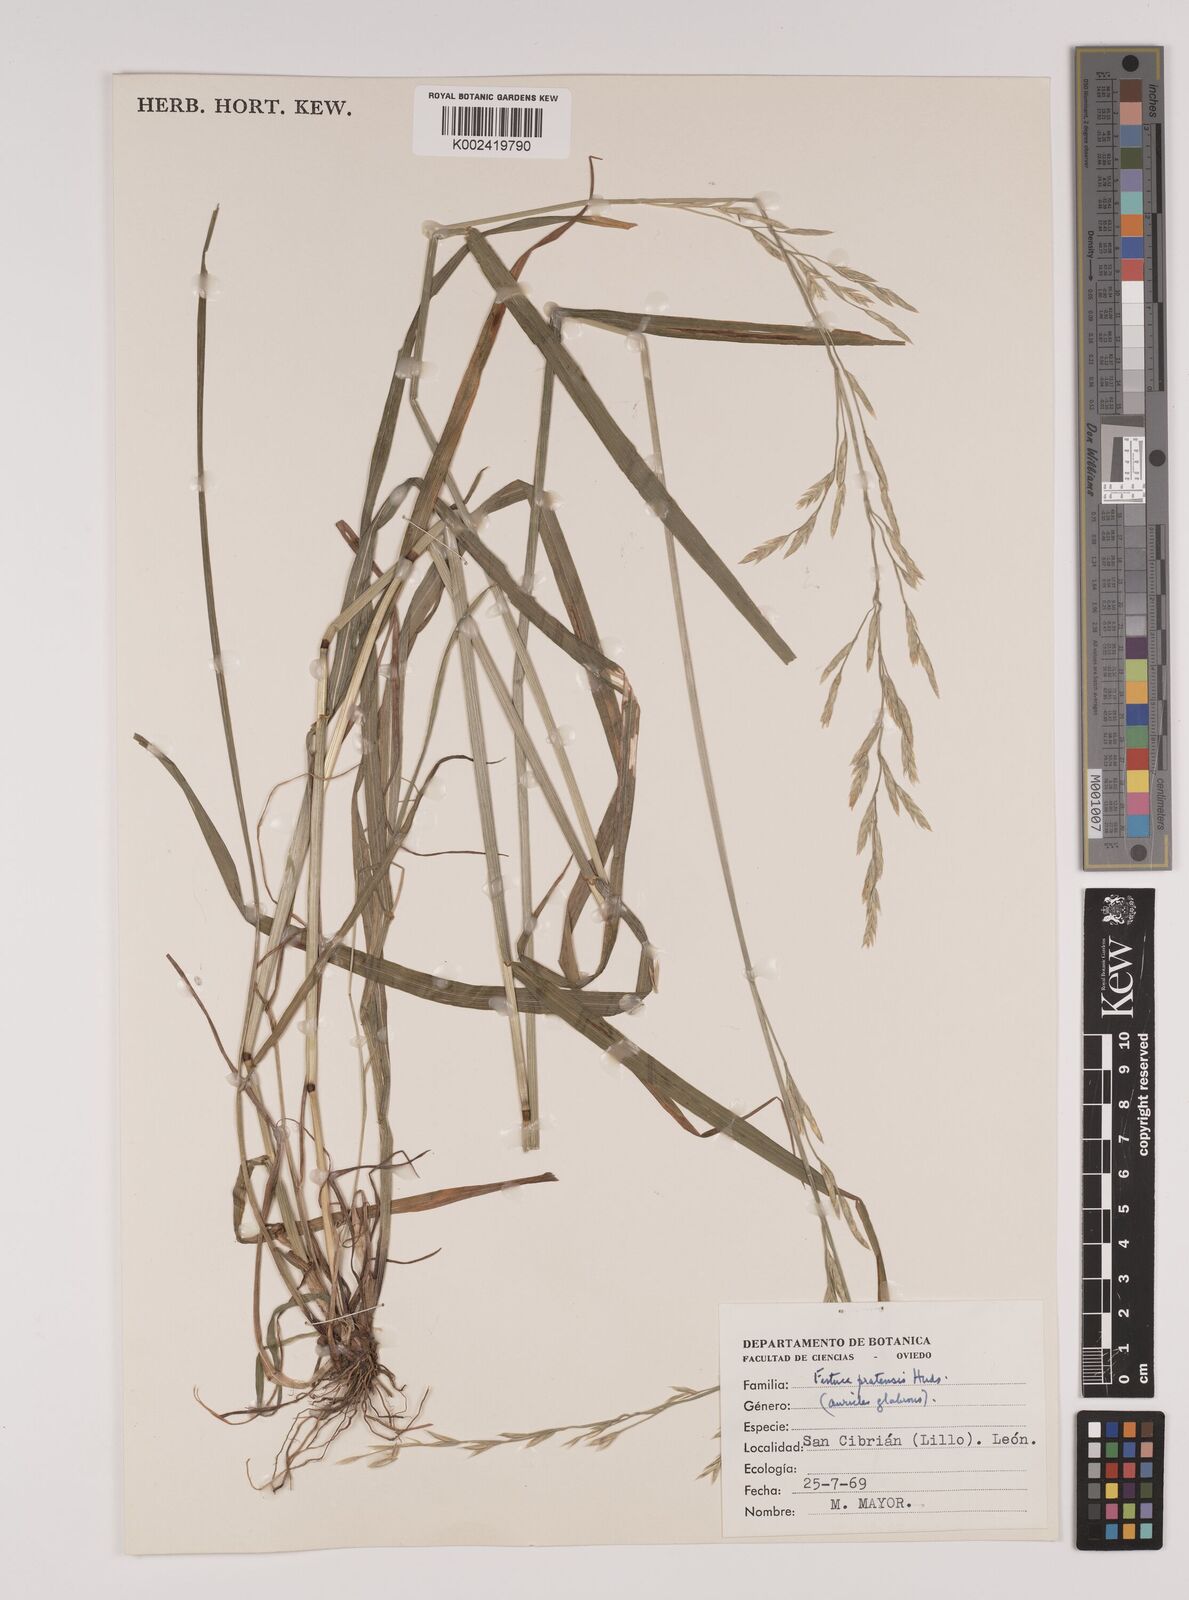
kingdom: Plantae
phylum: Tracheophyta
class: Liliopsida
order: Poales
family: Poaceae
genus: Festuca
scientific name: Festuca
